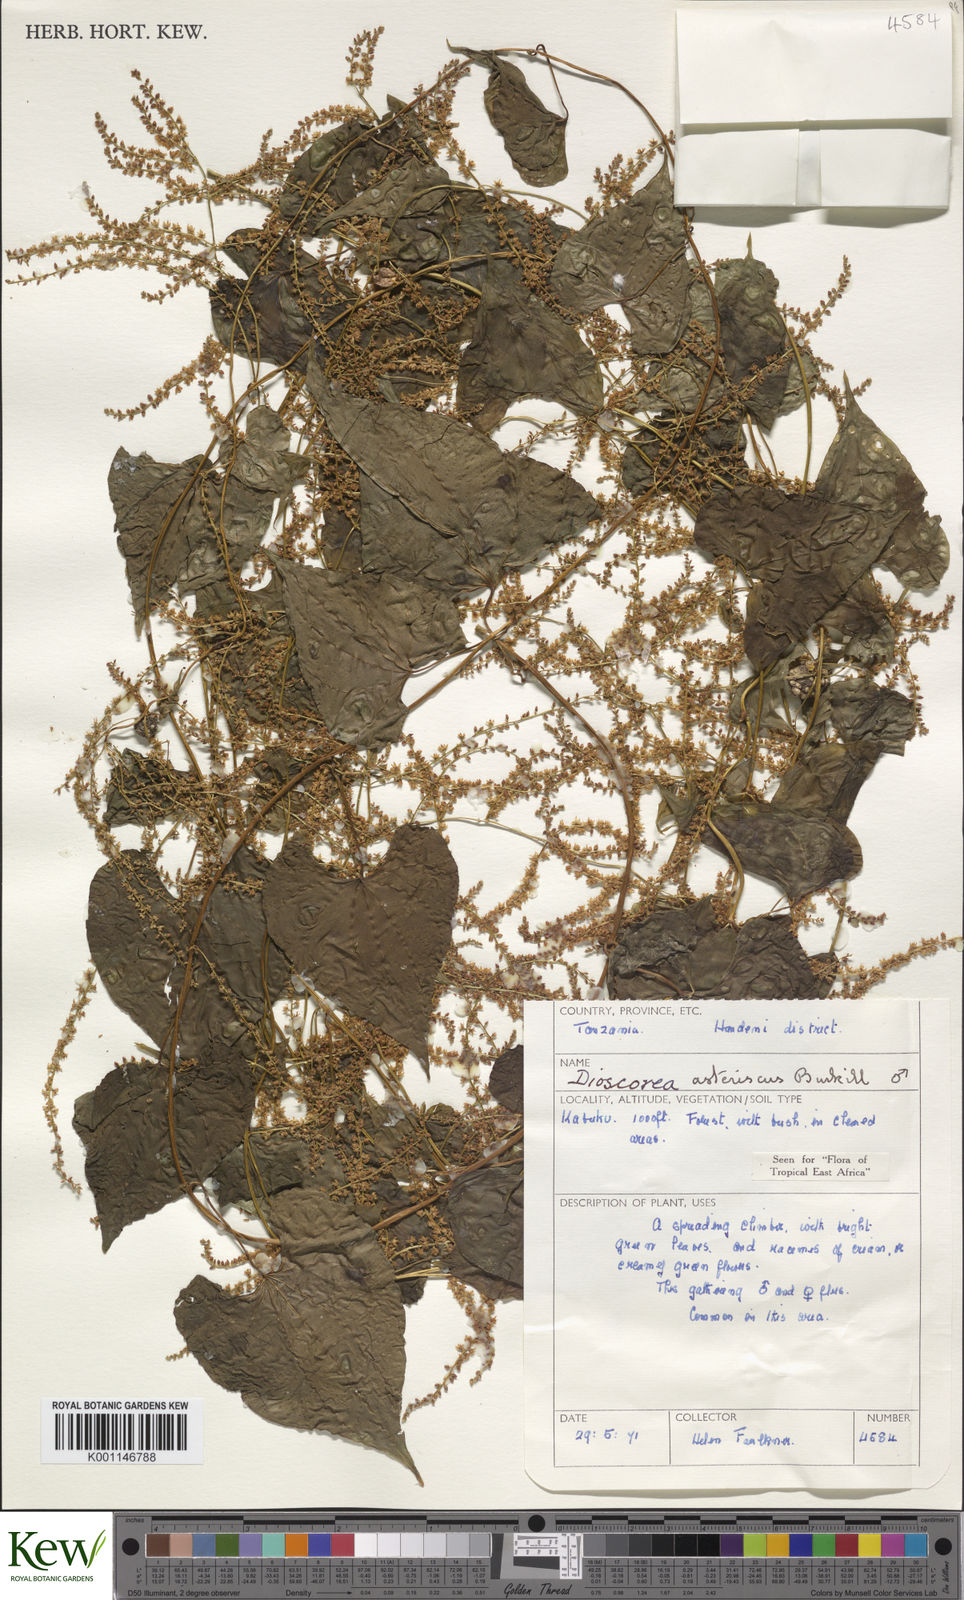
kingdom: Plantae
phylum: Tracheophyta
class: Liliopsida
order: Dioscoreales
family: Dioscoreaceae
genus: Dioscorea
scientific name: Dioscorea asteriscus
